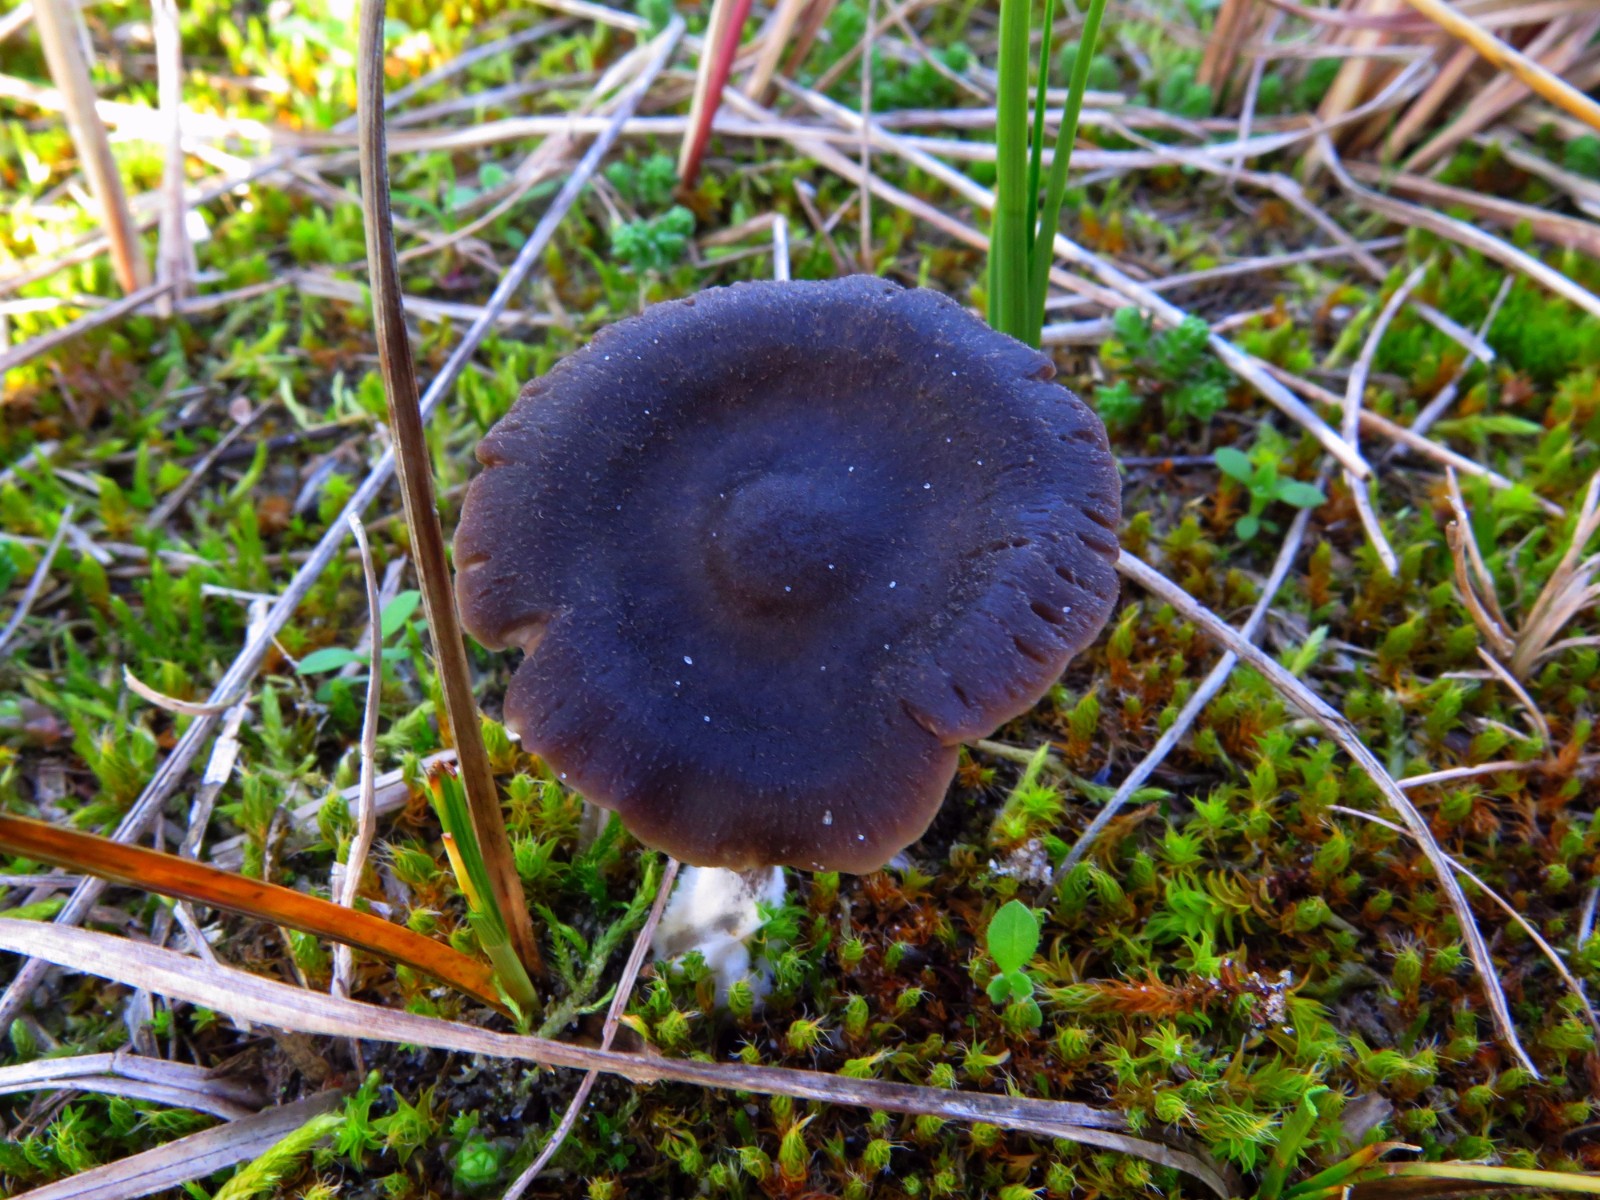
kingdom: Fungi
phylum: Basidiomycota
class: Agaricomycetes
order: Agaricales
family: Entolomataceae
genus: Entoloma
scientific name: Entoloma
